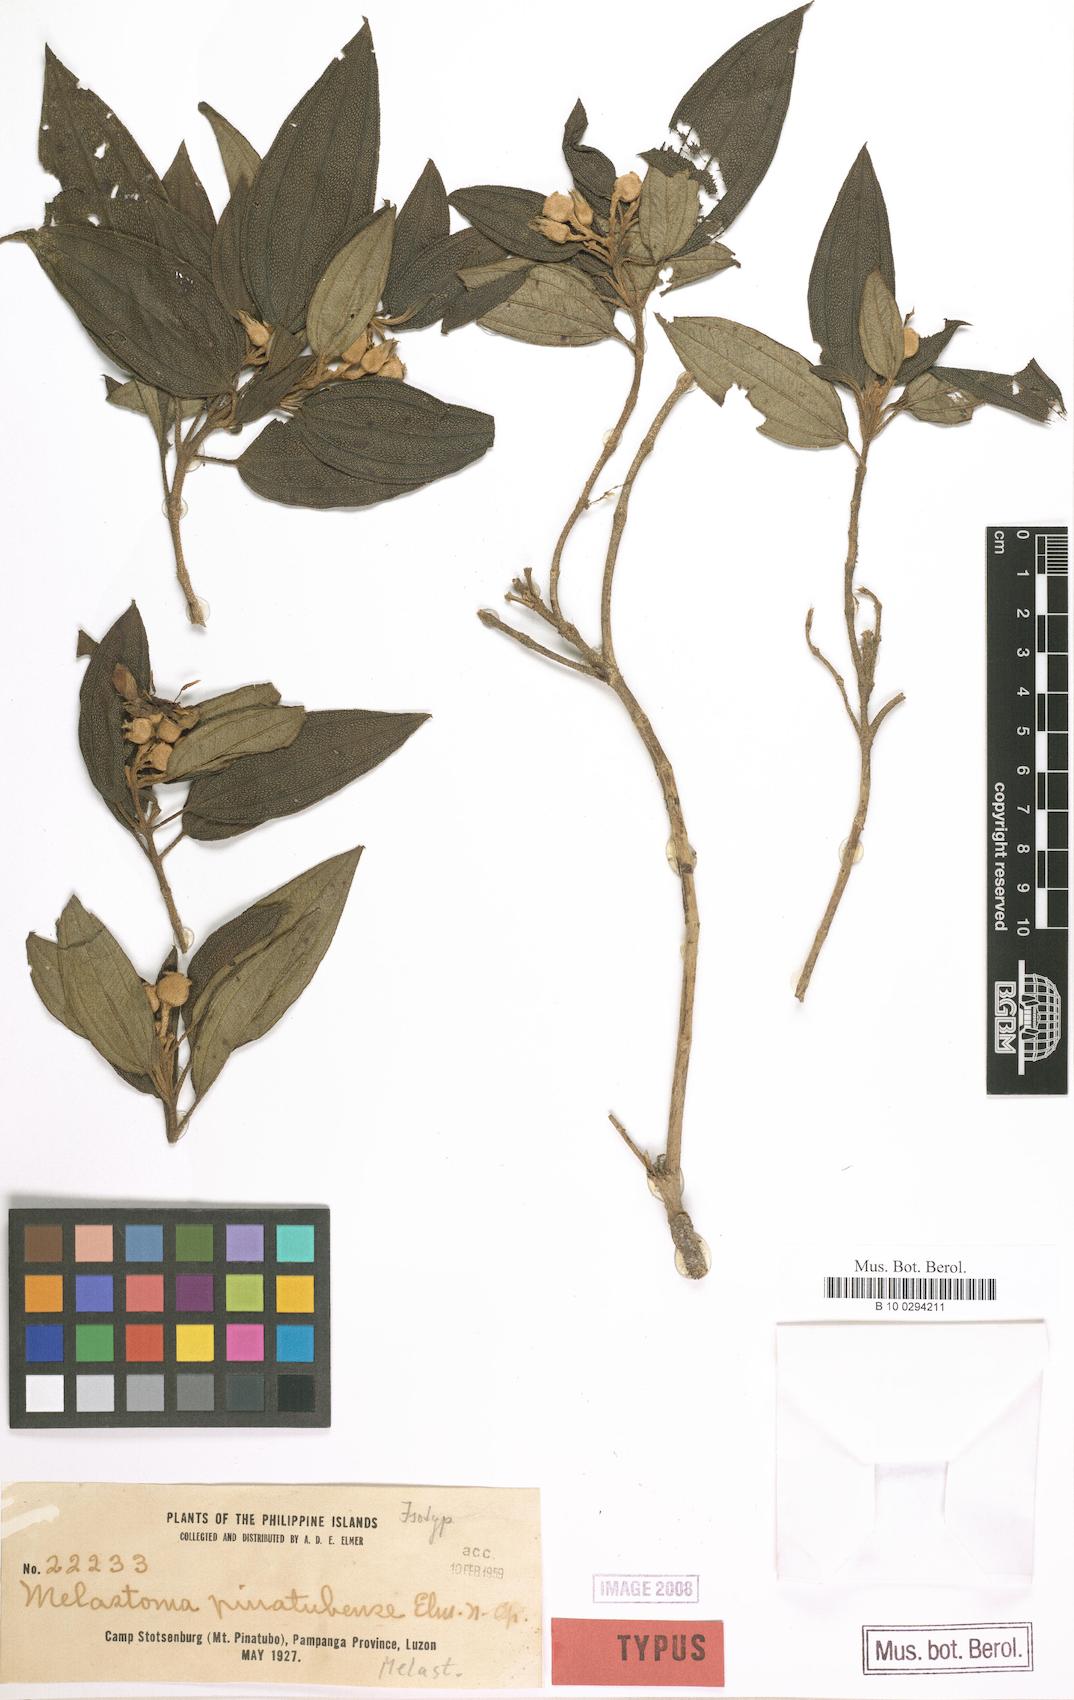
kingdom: Plantae
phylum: Tracheophyta
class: Magnoliopsida
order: Myrtales
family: Melastomataceae
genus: Melastoma
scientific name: Melastoma malabathricum
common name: Indian-rhododendron
